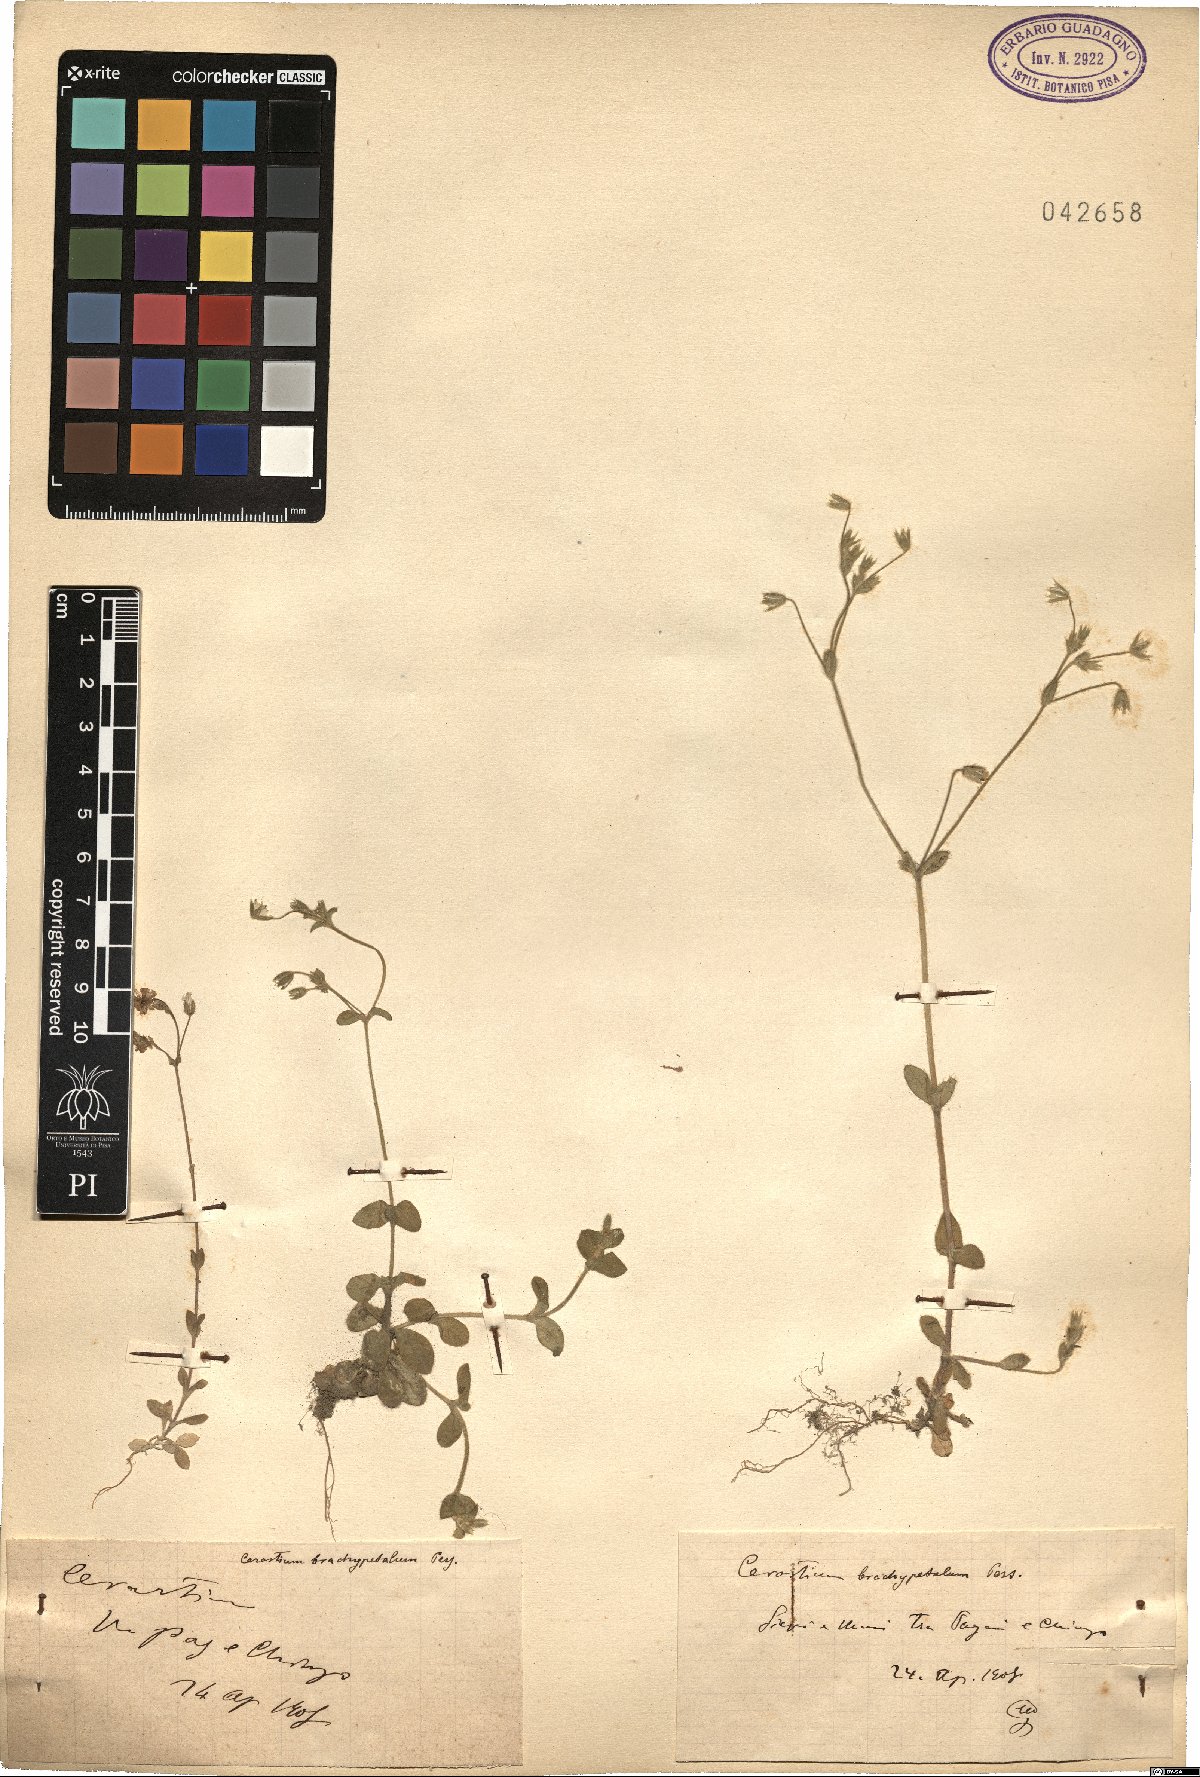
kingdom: Plantae
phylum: Tracheophyta
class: Magnoliopsida
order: Caryophyllales
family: Caryophyllaceae
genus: Cerastium
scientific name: Cerastium brachypetalum
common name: Grey mouse-ear
